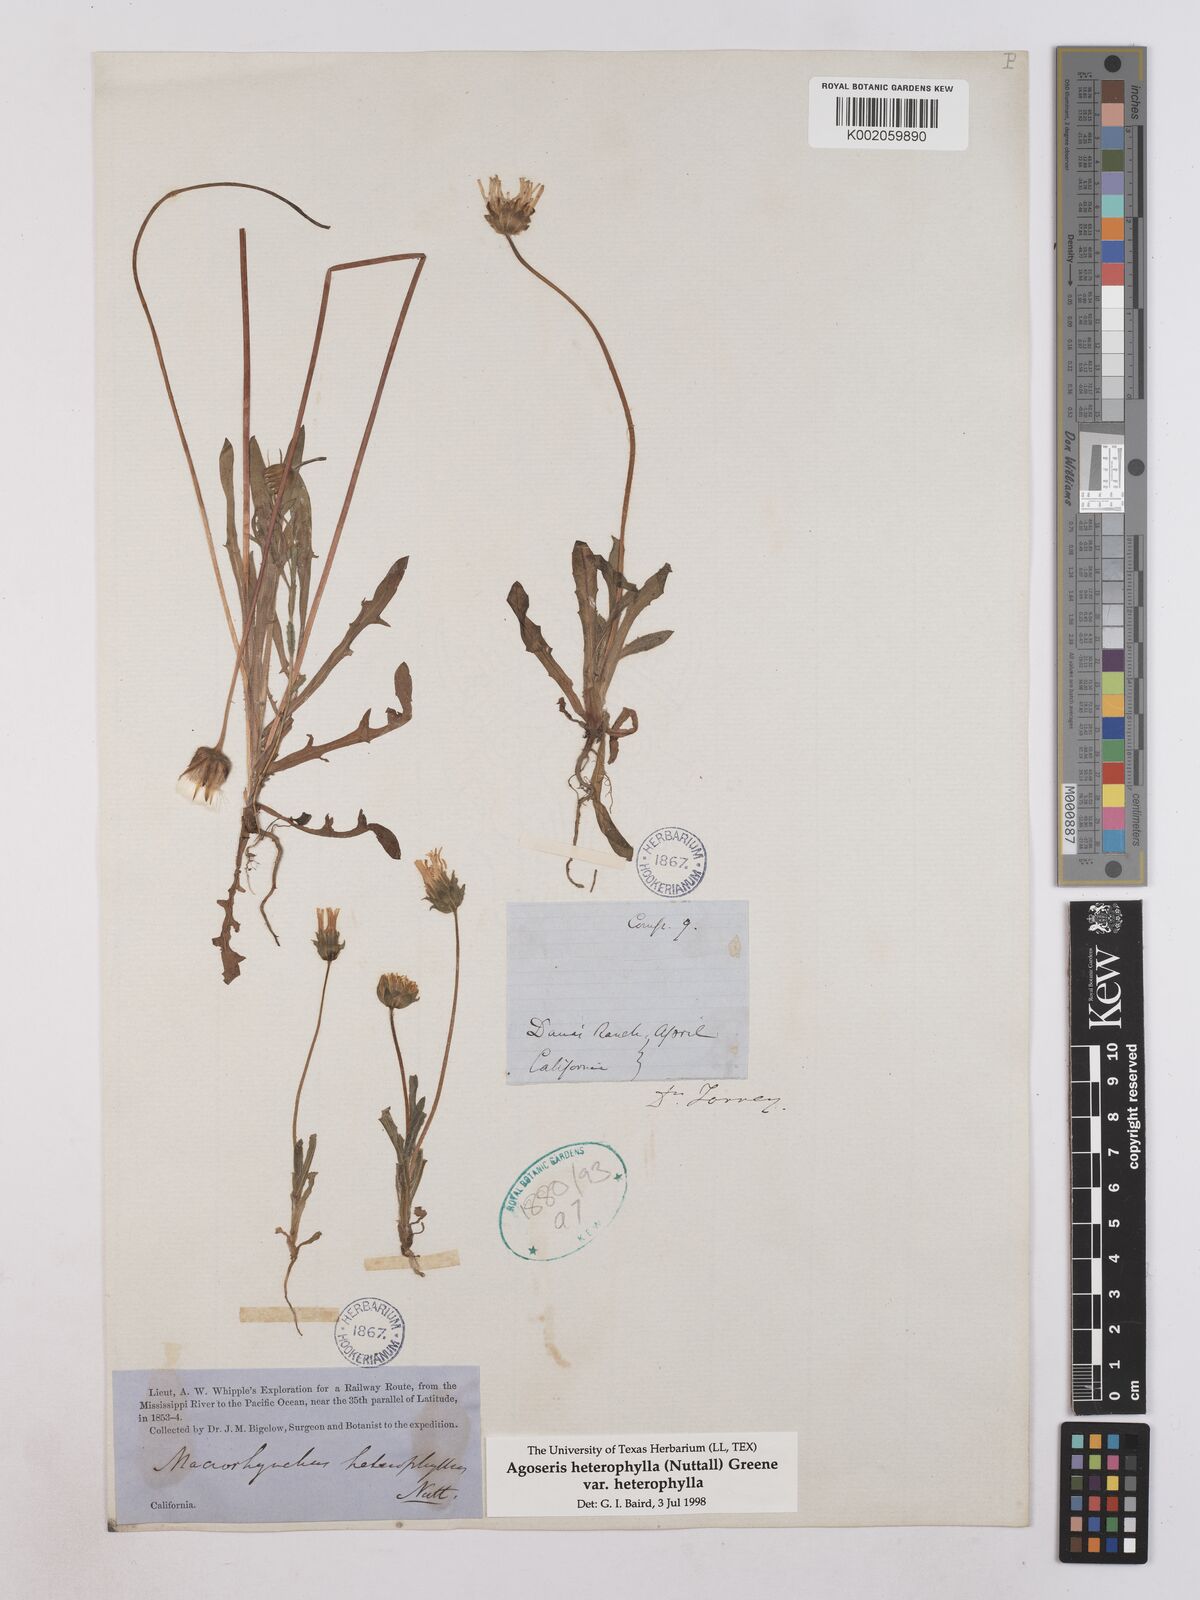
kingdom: Plantae
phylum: Tracheophyta
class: Magnoliopsida
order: Asterales
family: Asteraceae
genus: Agoseris
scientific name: Agoseris heterophylla
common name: Annual agoseris
